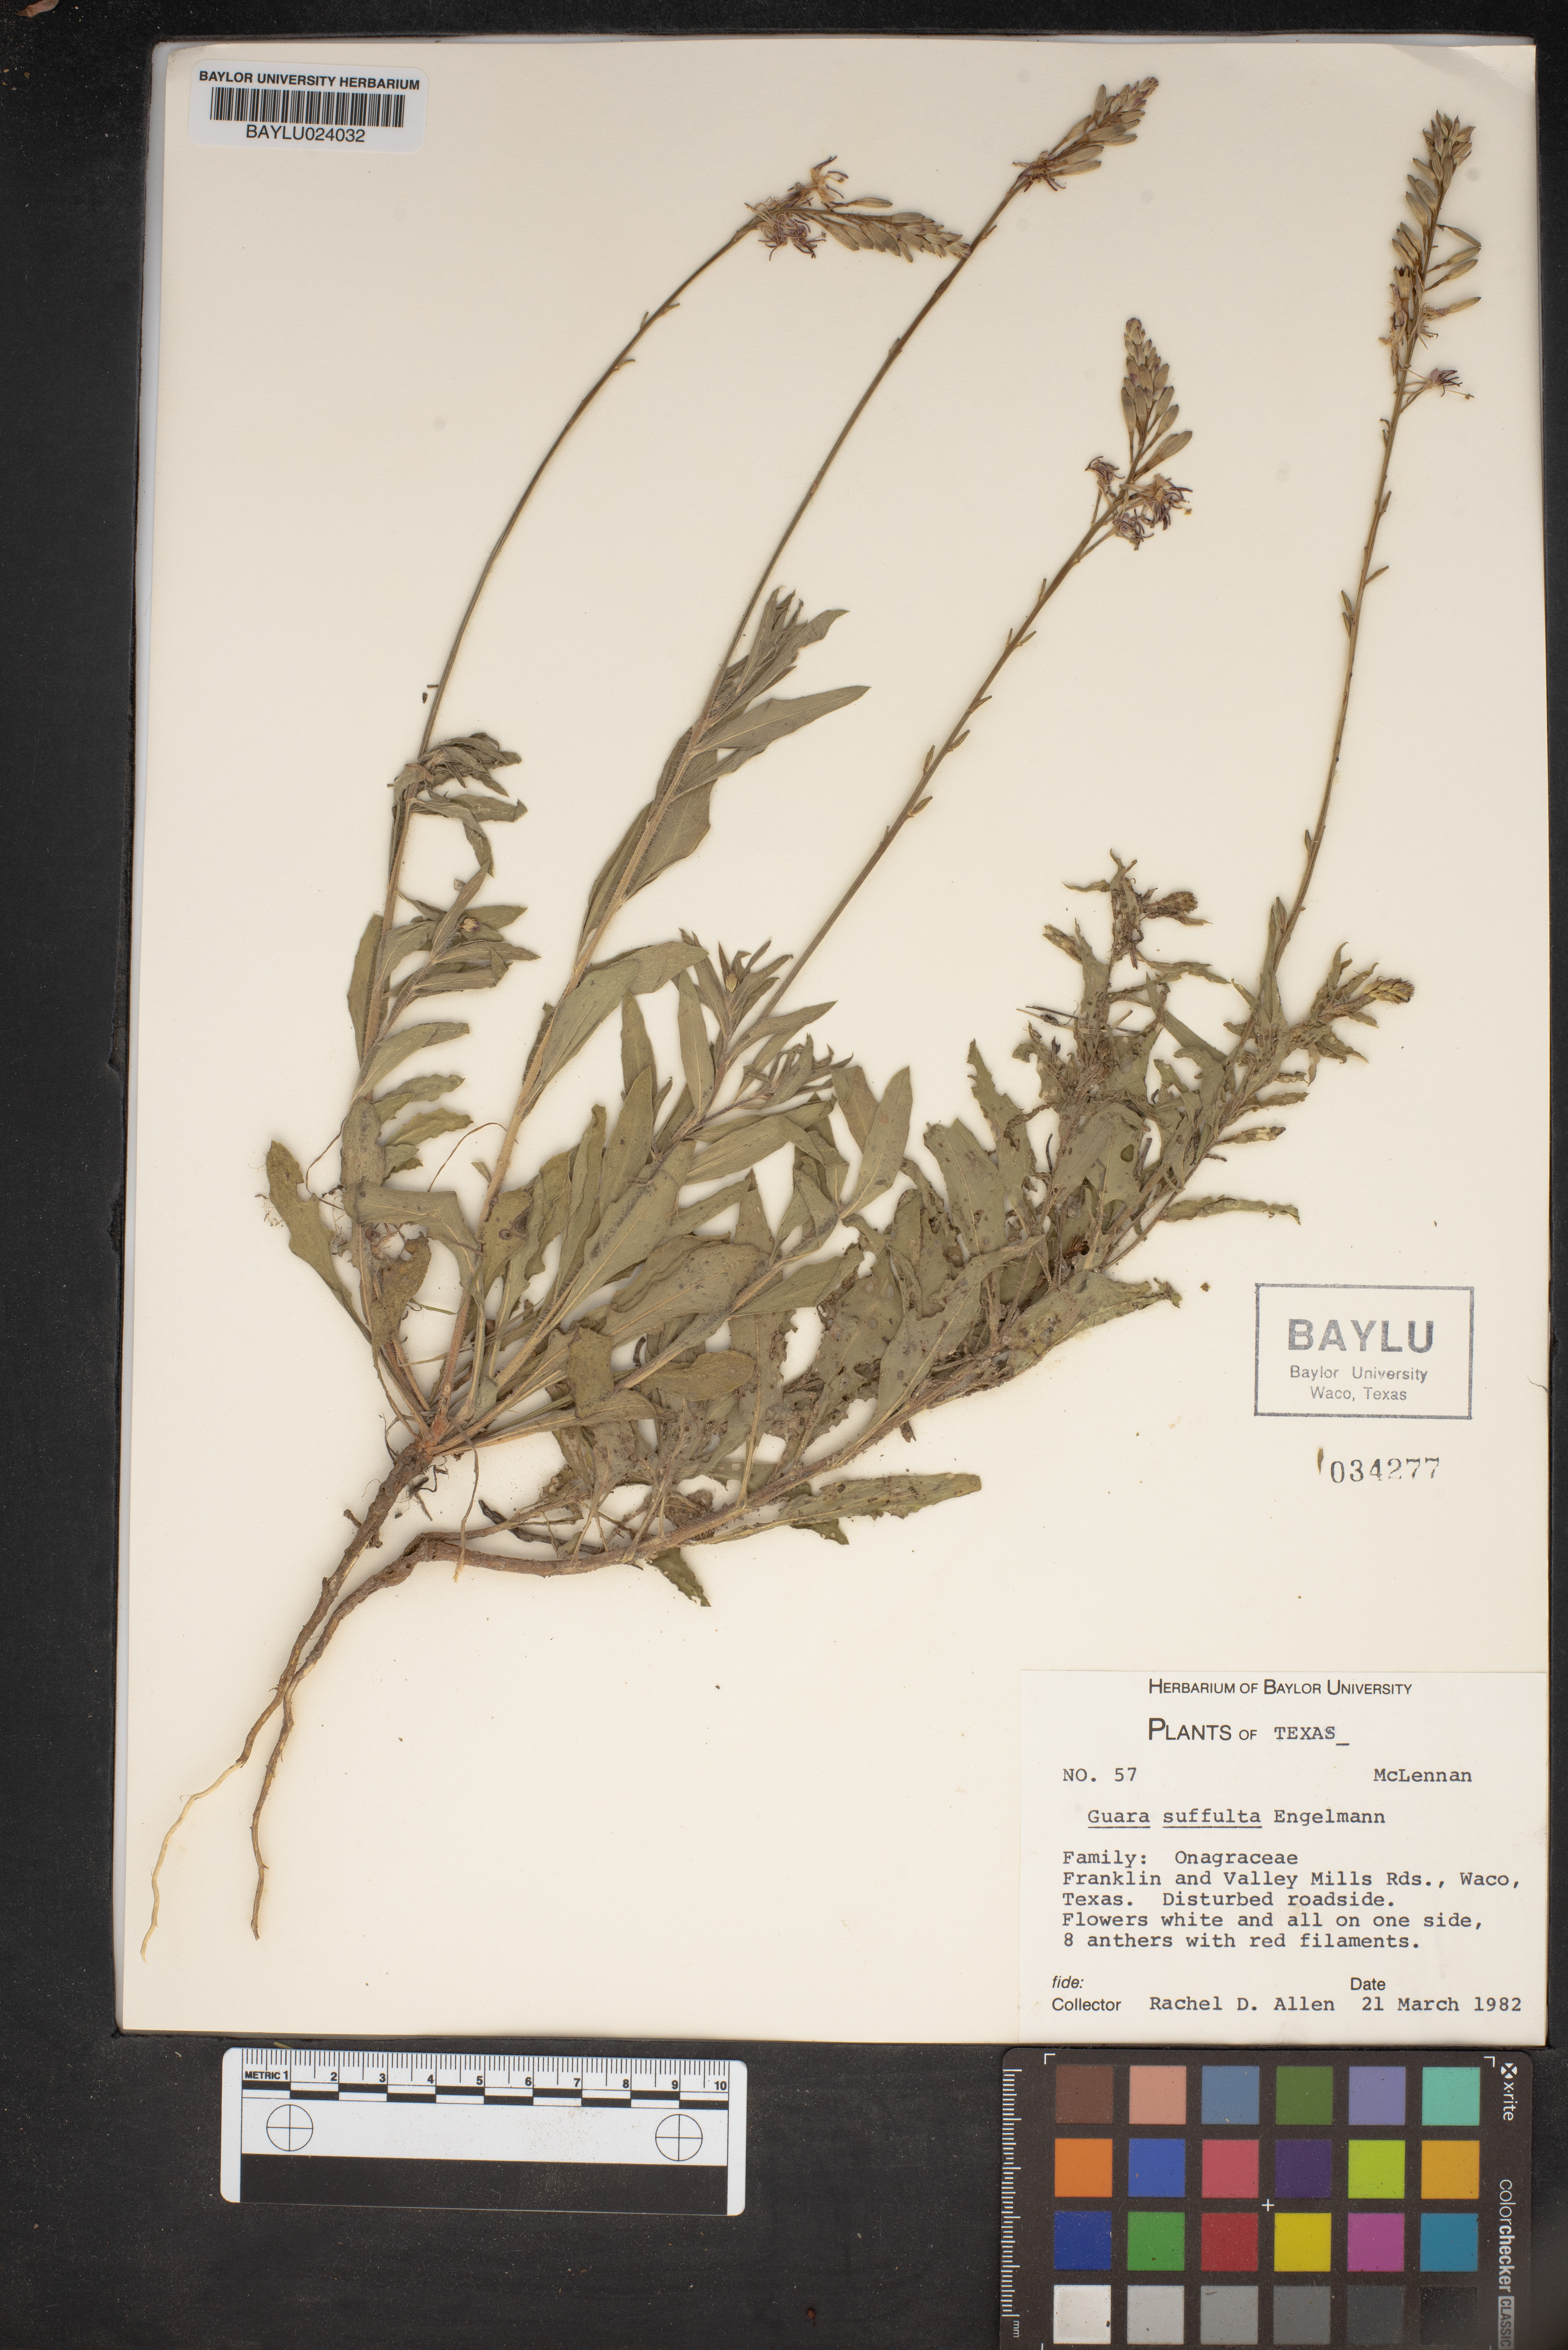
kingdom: Plantae
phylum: Tracheophyta
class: Magnoliopsida
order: Myrtales
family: Onagraceae
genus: Oenothera
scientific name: Oenothera Gaura suffulta
